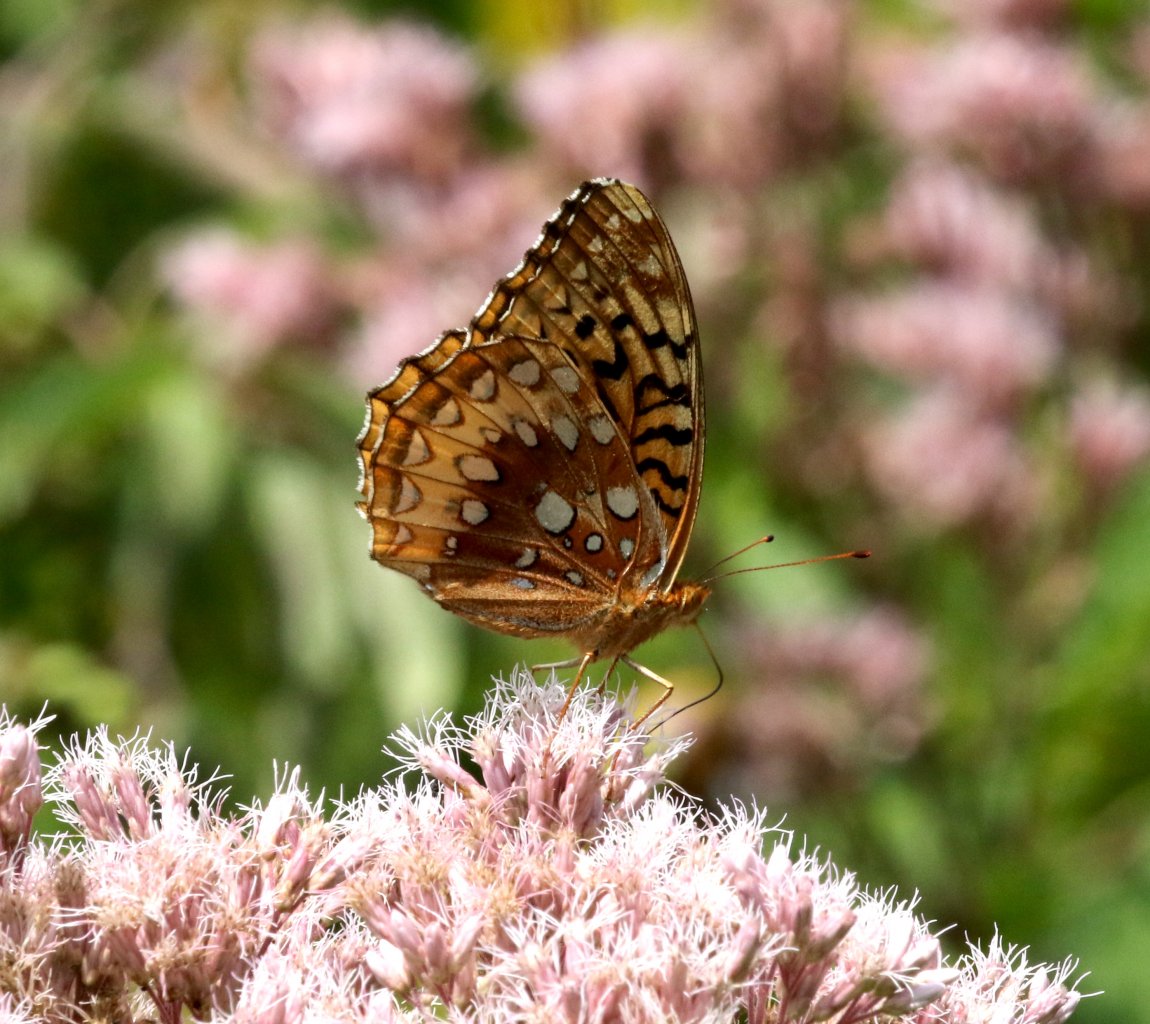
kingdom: Animalia
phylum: Arthropoda
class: Insecta
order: Lepidoptera
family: Nymphalidae
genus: Speyeria
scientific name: Speyeria cybele
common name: Great Spangled Fritillary
